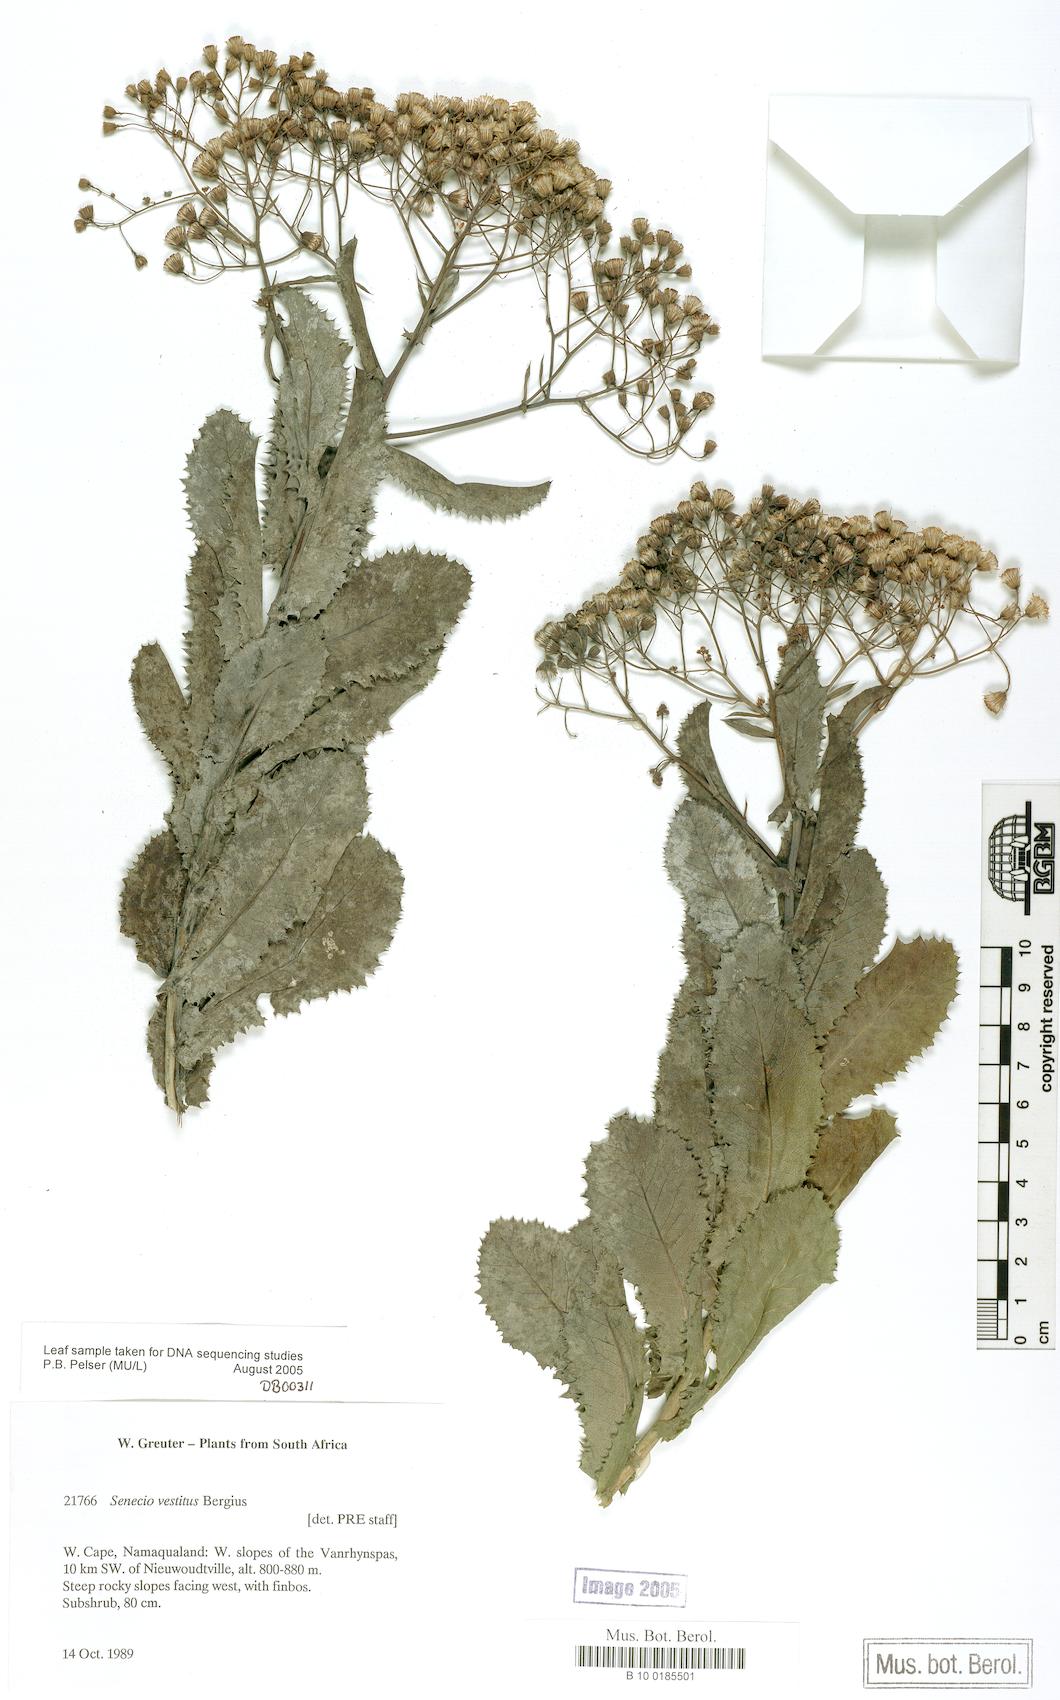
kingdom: Plantae
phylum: Tracheophyta
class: Magnoliopsida
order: Asterales
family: Asteraceae
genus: Senecio
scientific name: Senecio vestitus
